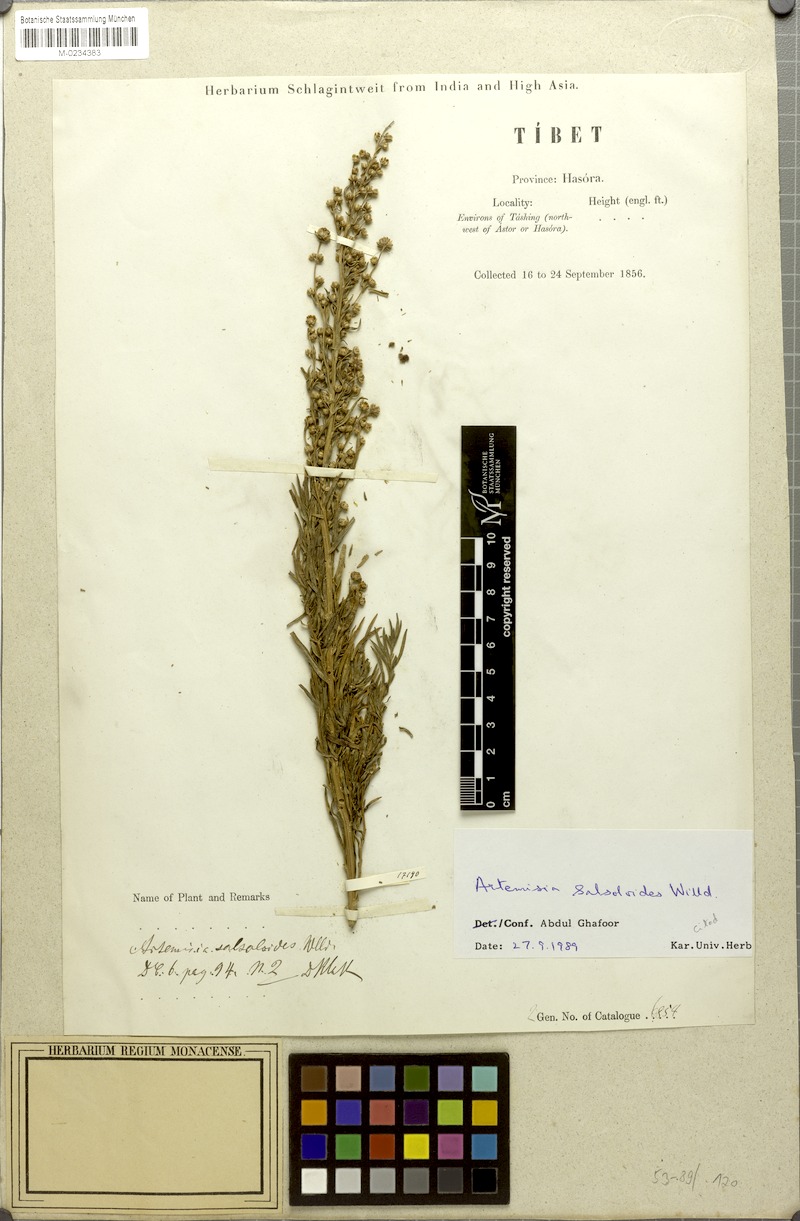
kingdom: Plantae
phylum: Tracheophyta
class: Magnoliopsida
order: Asterales
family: Asteraceae
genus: Artemisia
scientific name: Artemisia salsoloides
